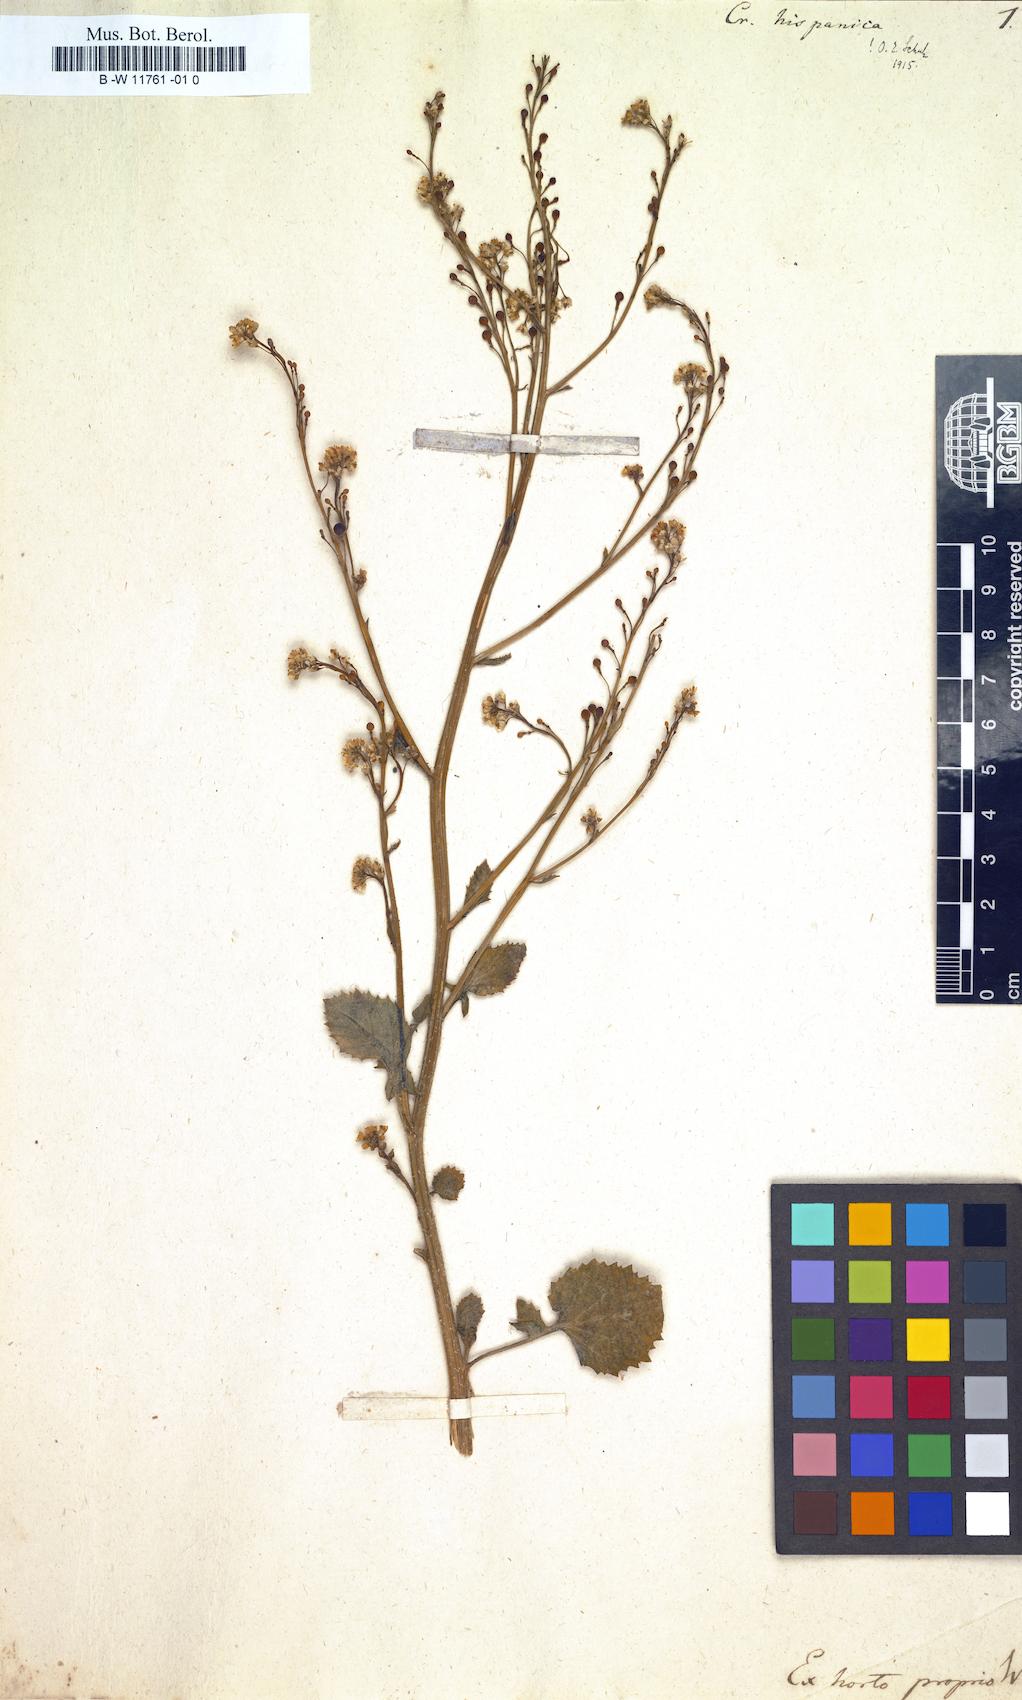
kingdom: Plantae
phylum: Tracheophyta
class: Magnoliopsida
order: Brassicales
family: Brassicaceae
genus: Crambe
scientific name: Crambe hispanica
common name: Abyssinian mustard
